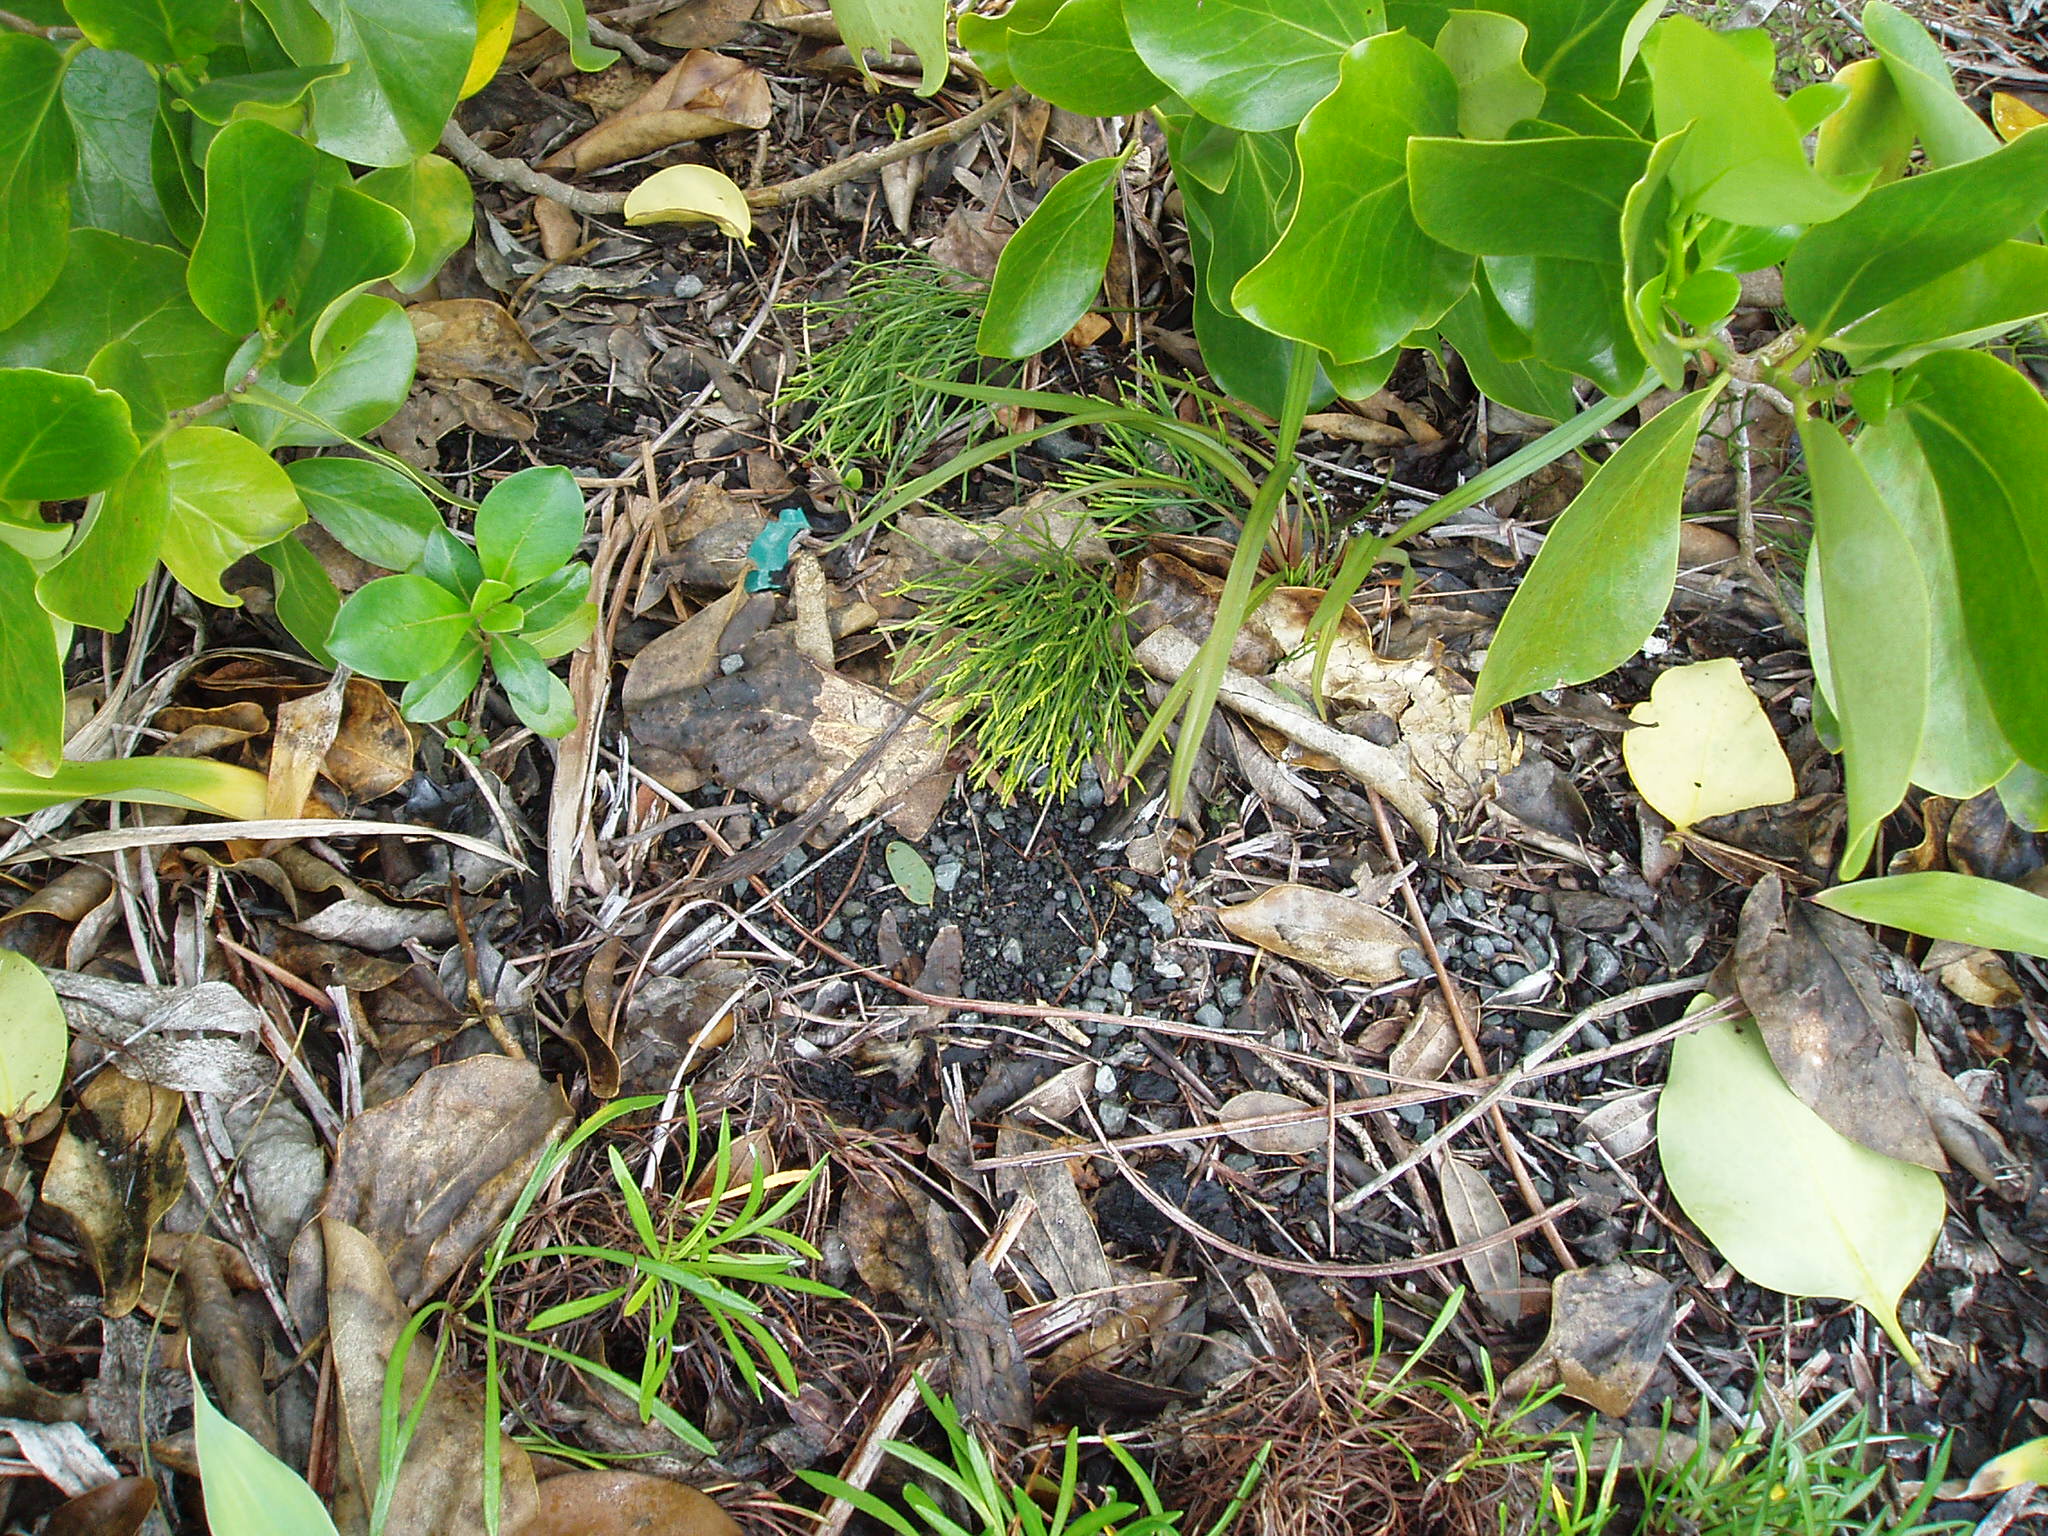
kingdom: Plantae
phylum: Tracheophyta
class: Polypodiopsida
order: Psilotales
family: Psilotaceae
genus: Psilotum
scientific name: Psilotum nudum
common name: Skeleton fork fern
